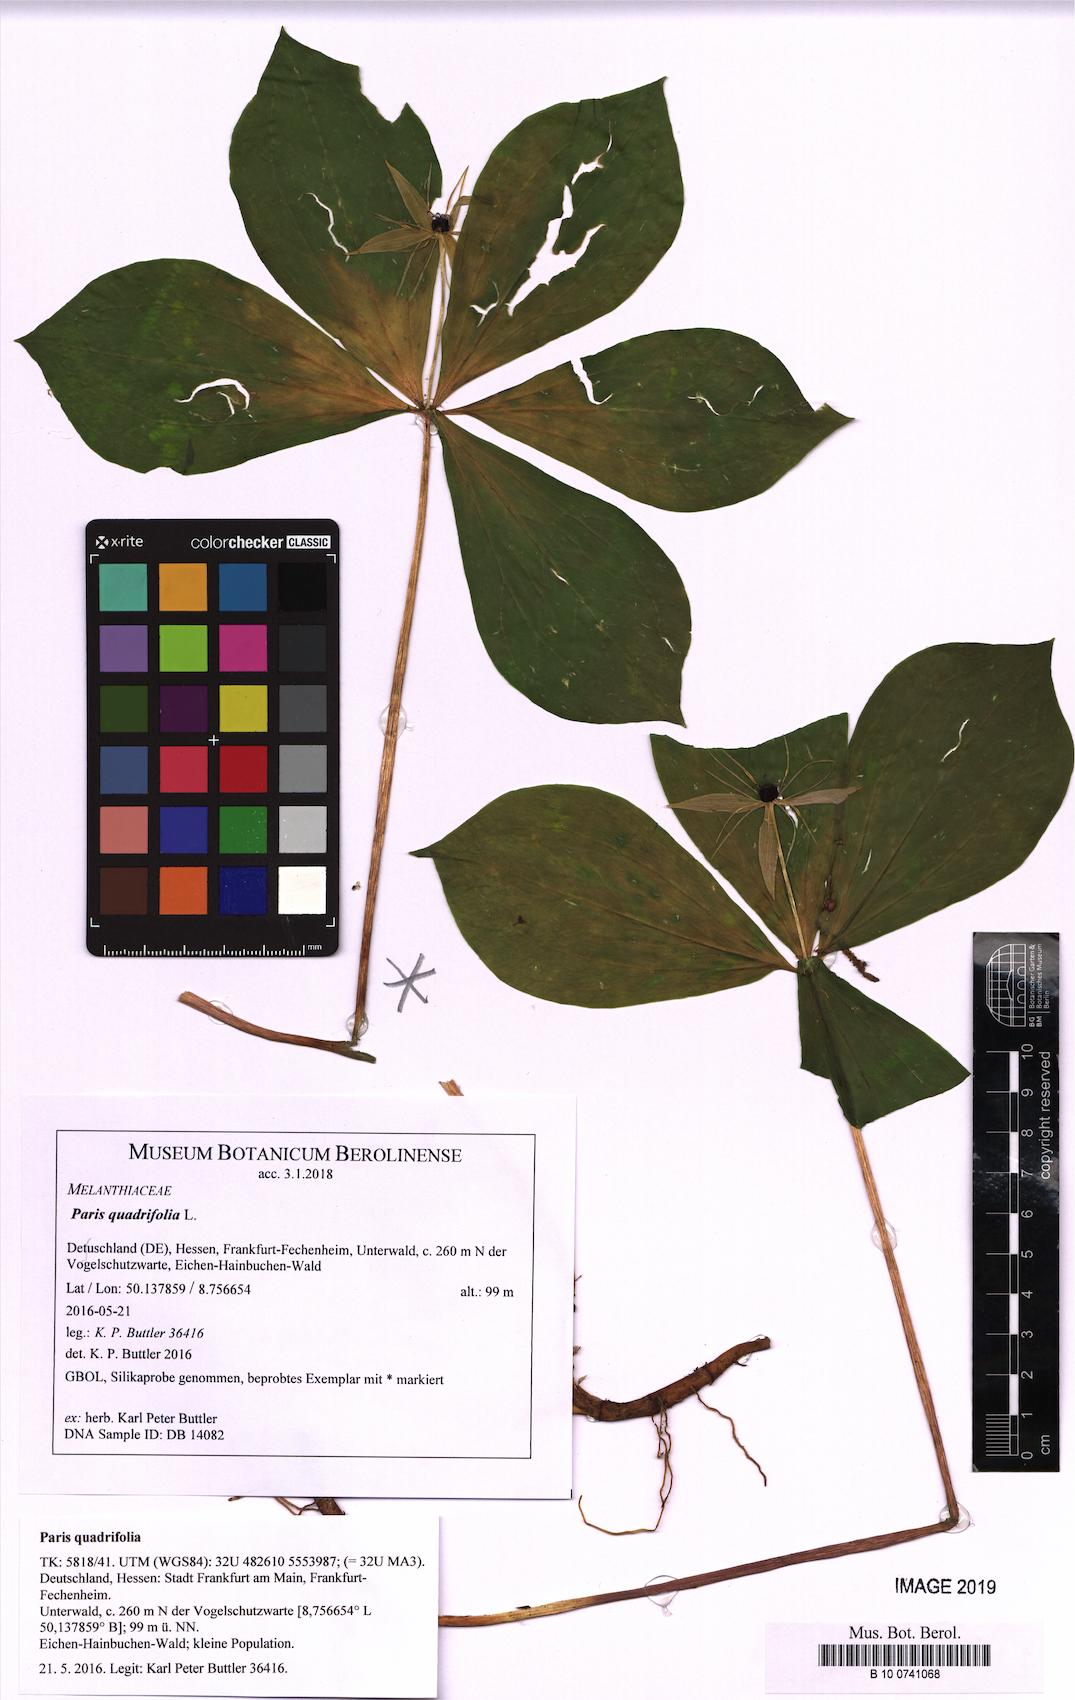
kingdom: Plantae
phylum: Tracheophyta
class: Liliopsida
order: Liliales
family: Melanthiaceae
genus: Paris
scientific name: Paris quadrifolia
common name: Herb-paris
